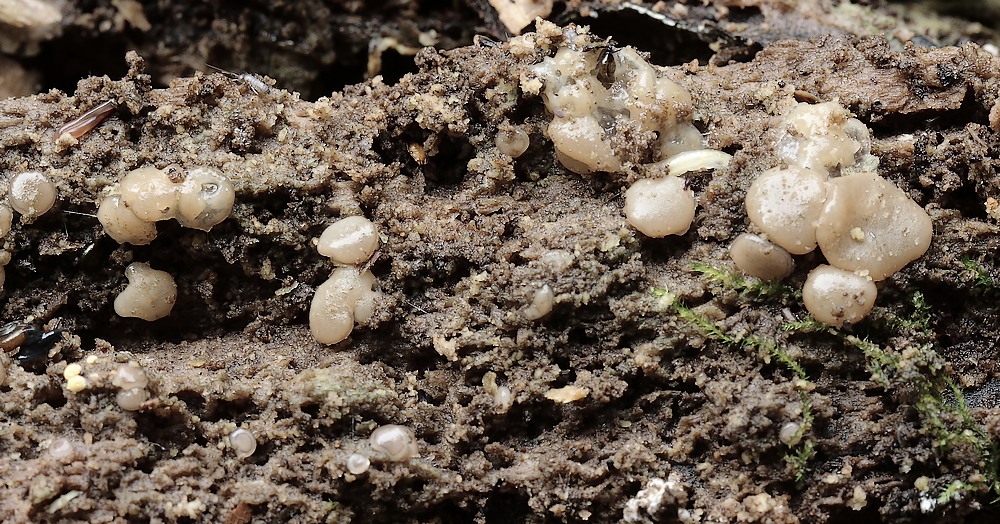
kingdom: Fungi
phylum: Ascomycota
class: Pezizomycetes
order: Pezizales
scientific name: Pezizales
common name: bægersvampordenen
